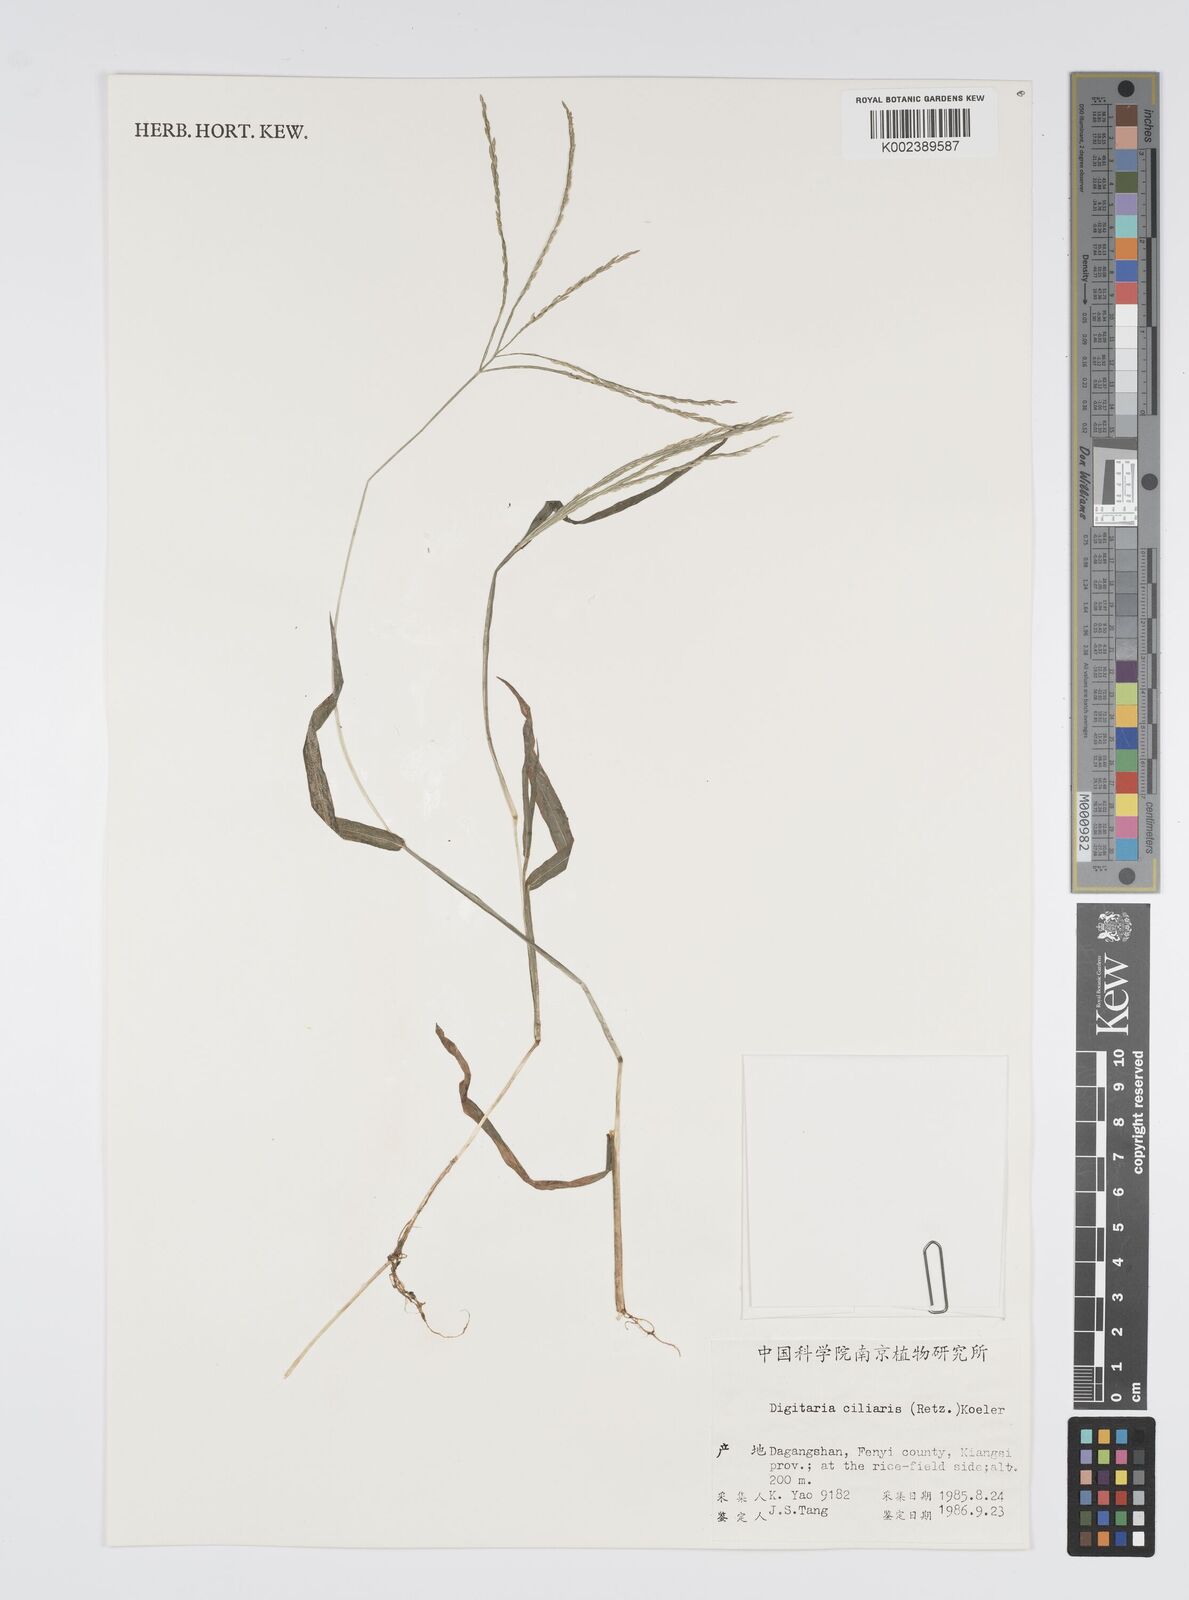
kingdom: Plantae
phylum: Tracheophyta
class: Liliopsida
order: Poales
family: Poaceae
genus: Digitaria
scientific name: Digitaria ciliaris
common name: Tropical finger-grass
